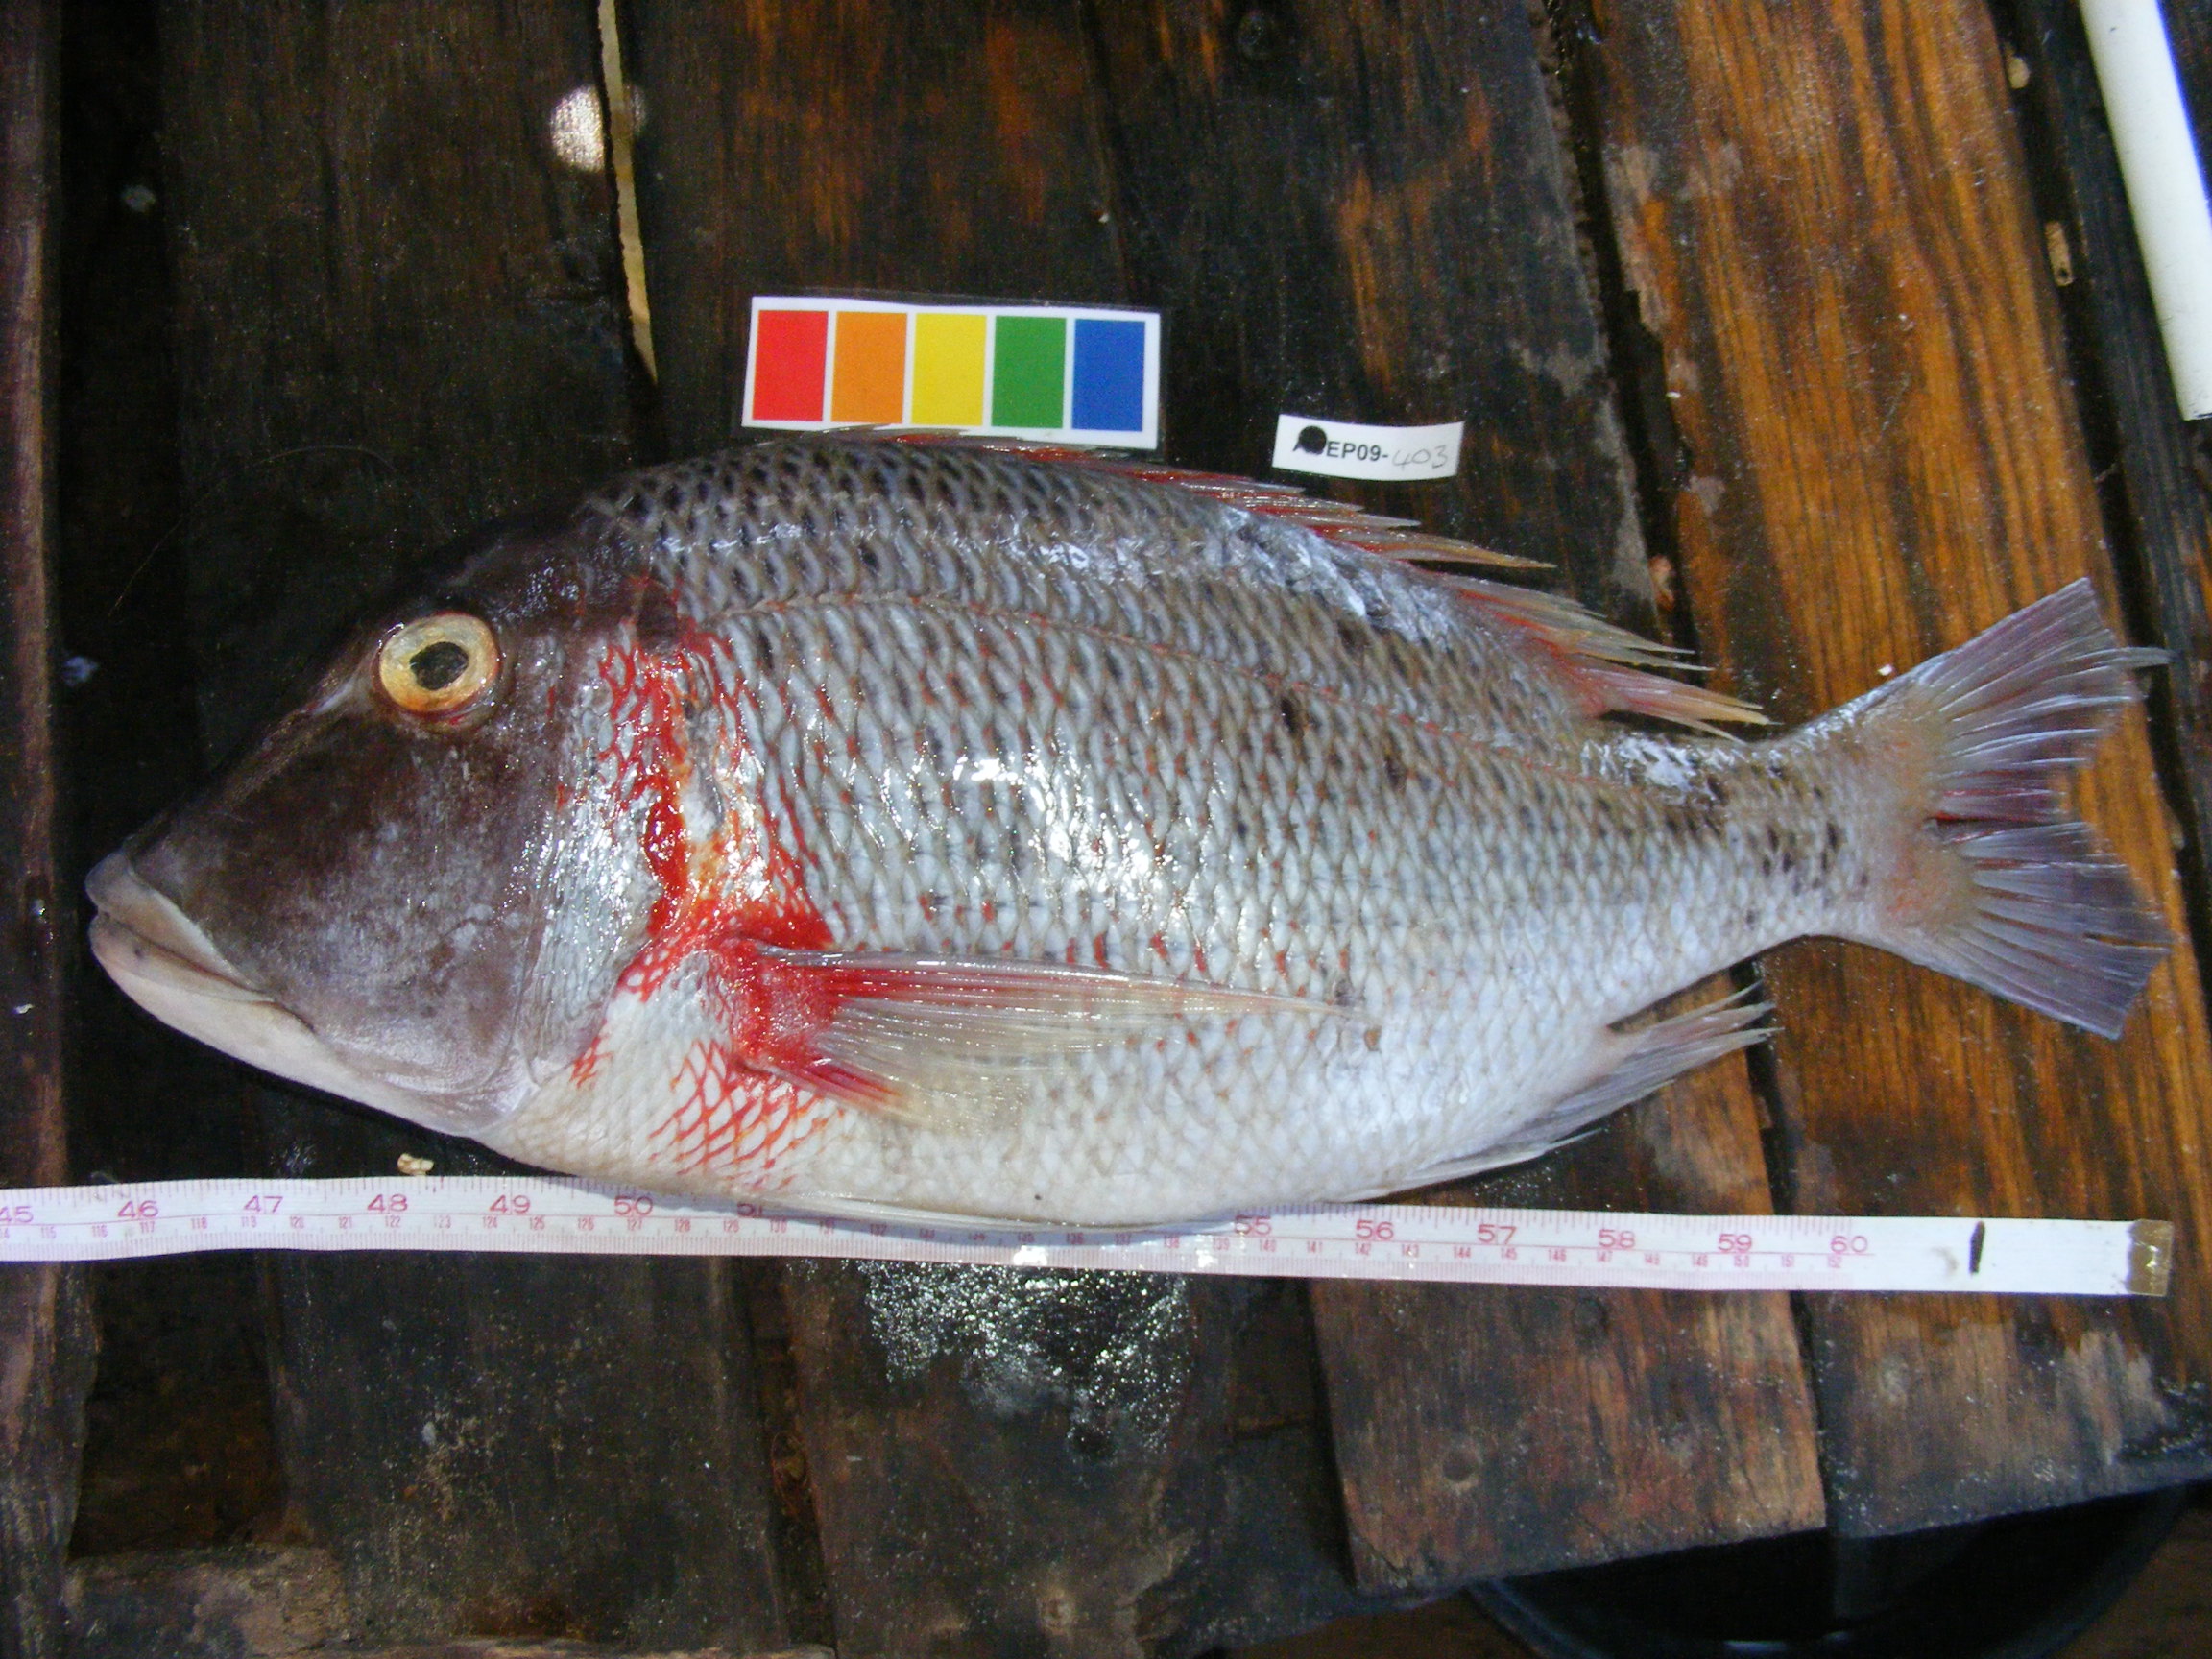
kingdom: Animalia
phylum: Chordata
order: Perciformes
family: Lethrinidae
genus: Lethrinus
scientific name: Lethrinus mahsena
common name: Sky emperor
